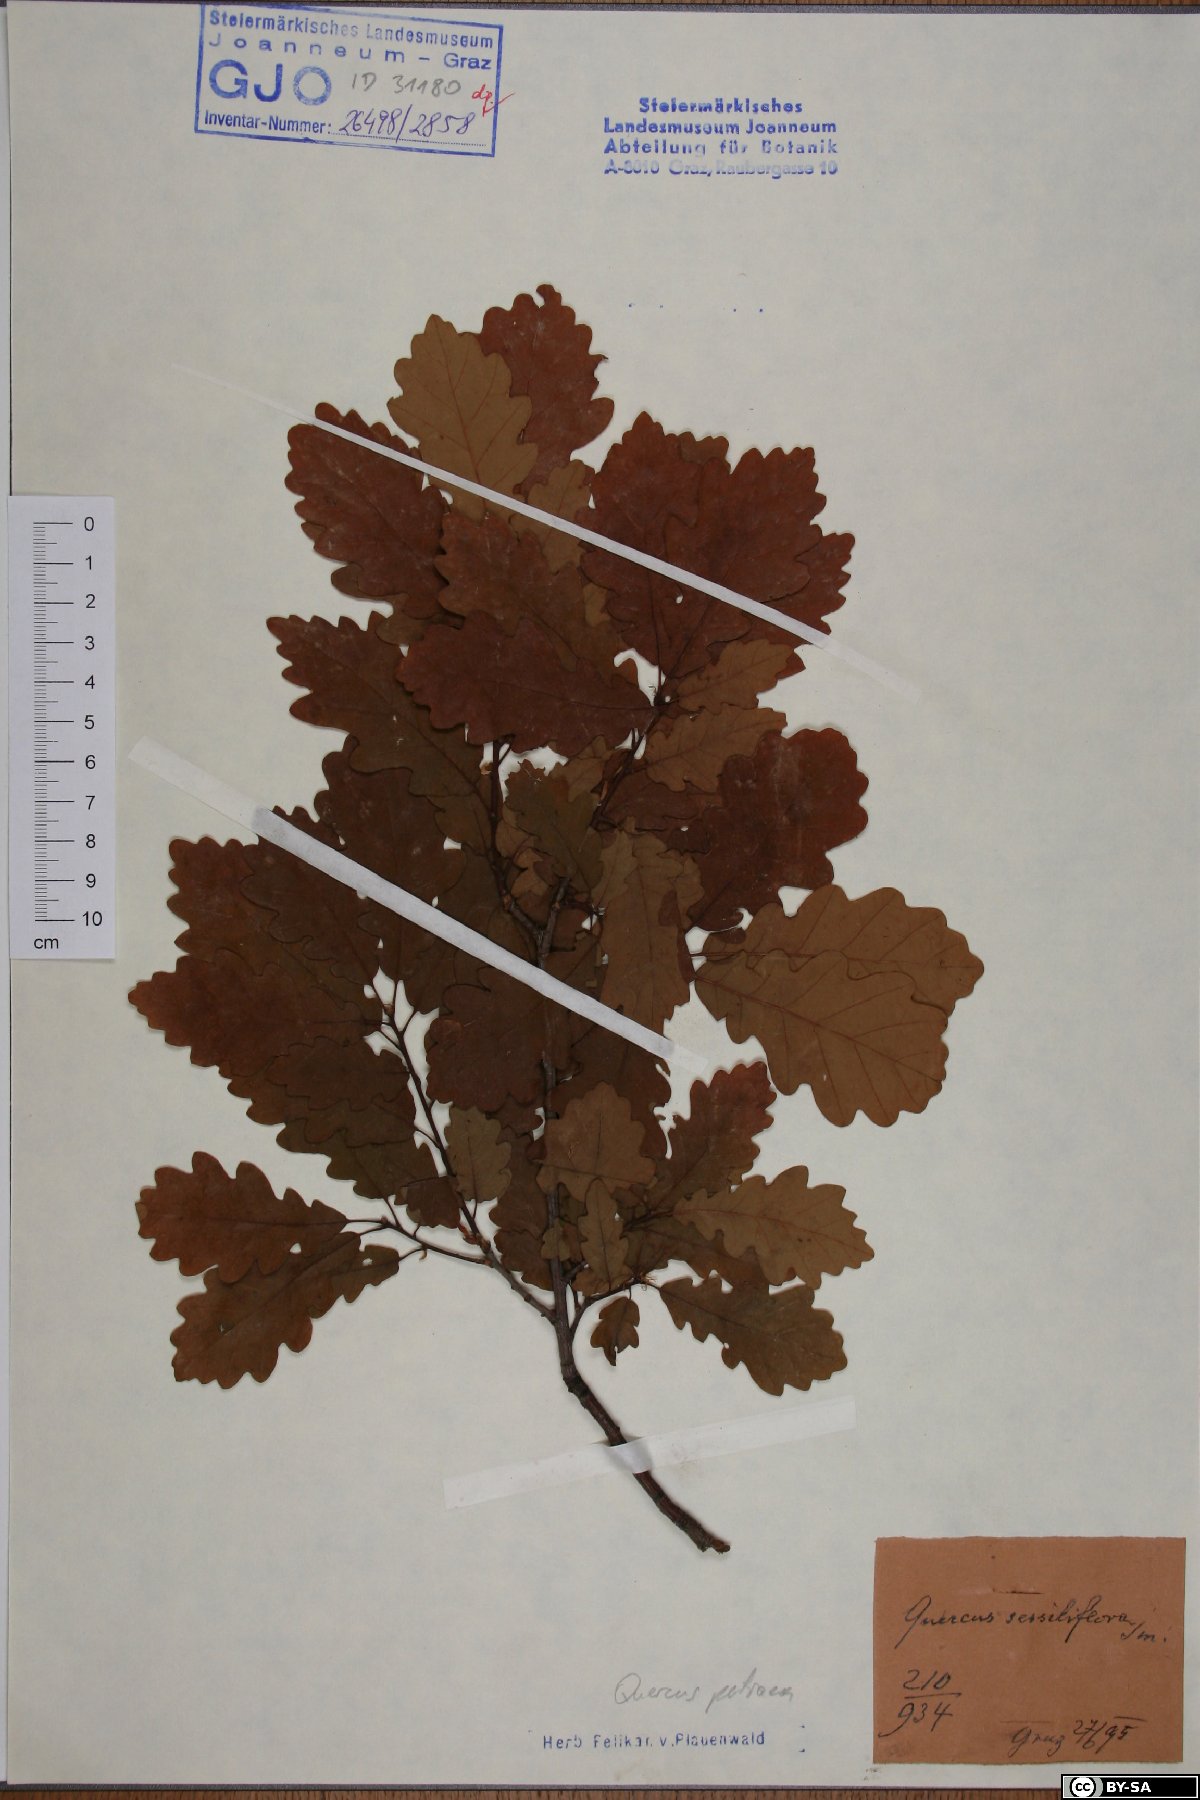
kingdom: Plantae
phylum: Tracheophyta
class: Magnoliopsida
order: Fagales
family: Fagaceae
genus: Quercus
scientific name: Quercus petraea
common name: Sessile oak
